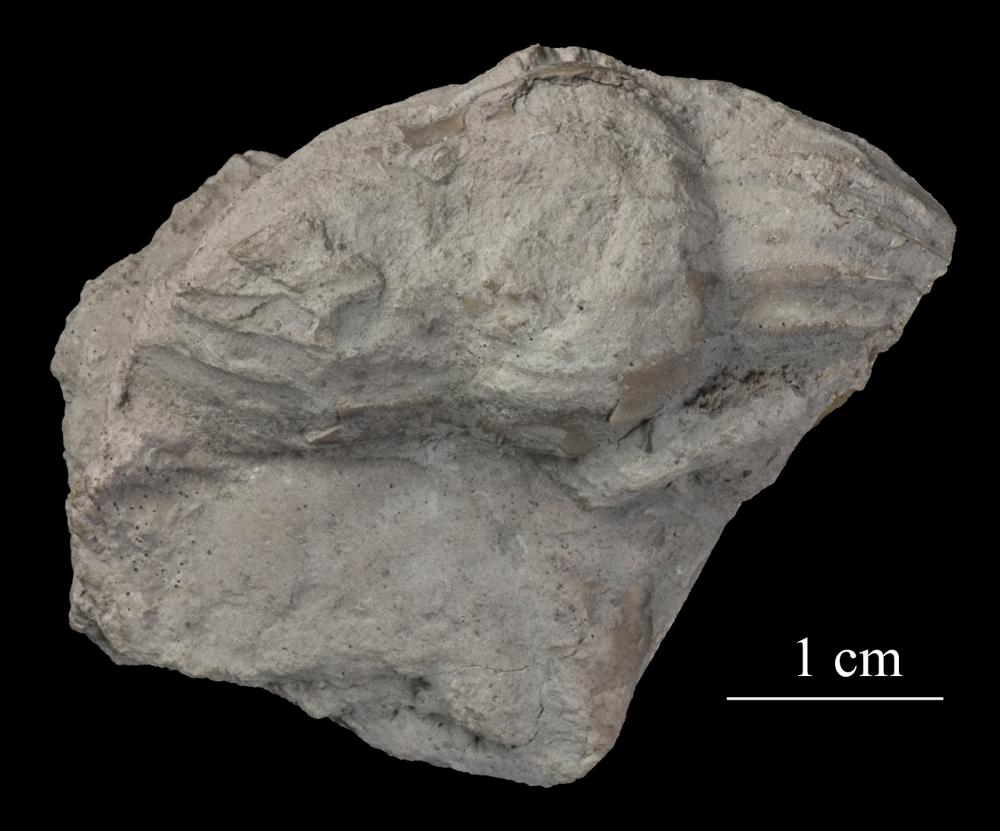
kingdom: Animalia
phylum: Arthropoda
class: Trilobita
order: Asaphida
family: Asaphidae
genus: Ptychopyge
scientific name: Ptychopyge
